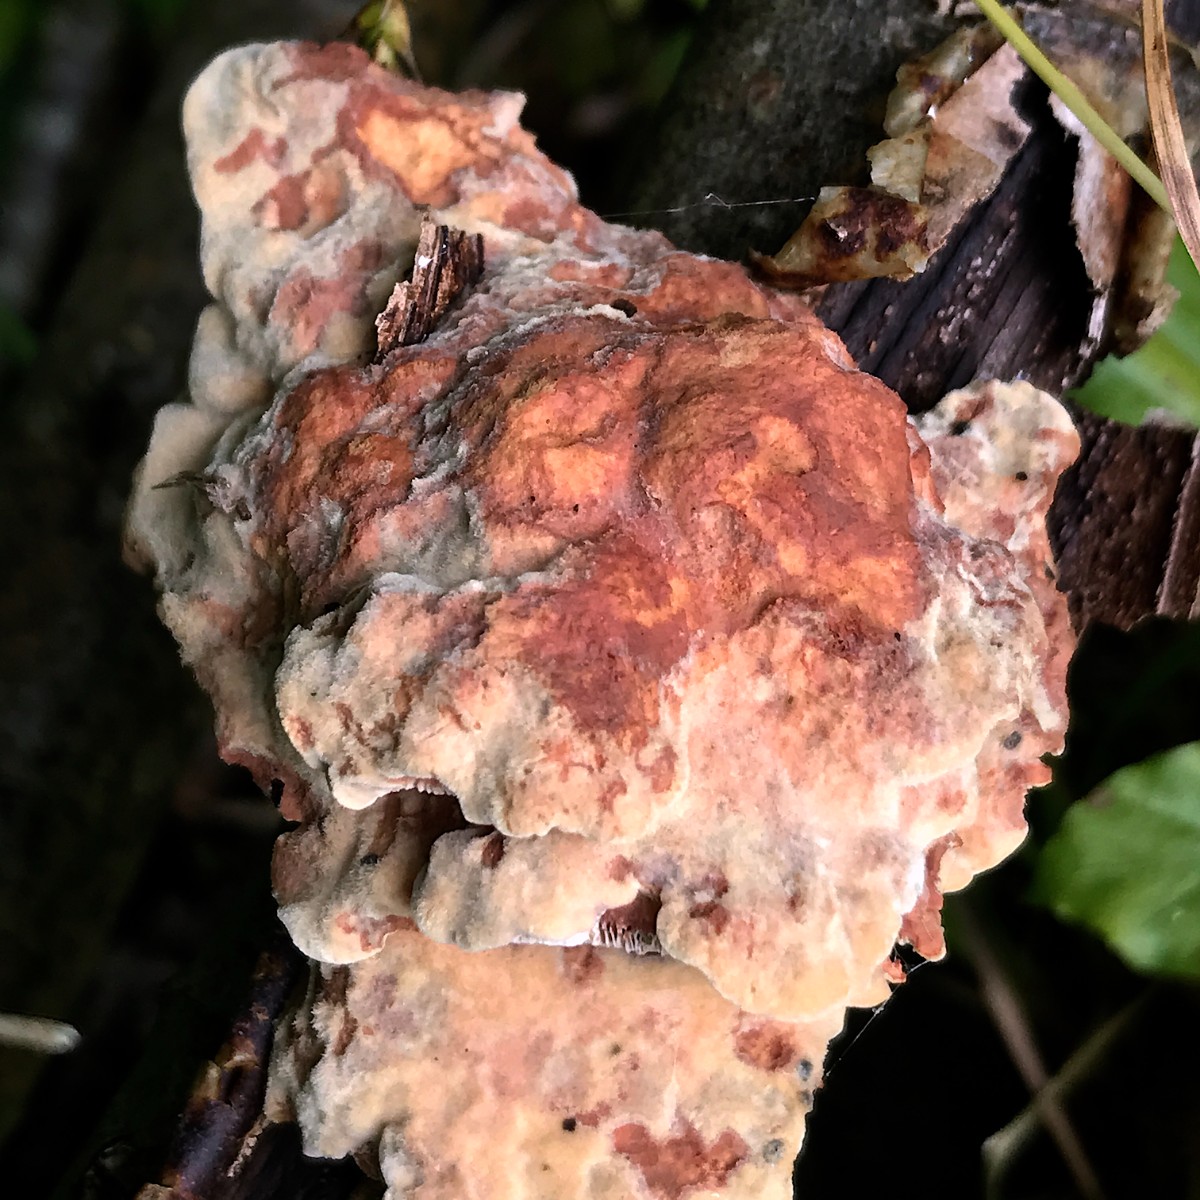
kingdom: Fungi
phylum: Basidiomycota
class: Agaricomycetes
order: Polyporales
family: Phanerochaetaceae
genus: Hapalopilus
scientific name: Hapalopilus rutilans
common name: rødlig okkerporesvamp
